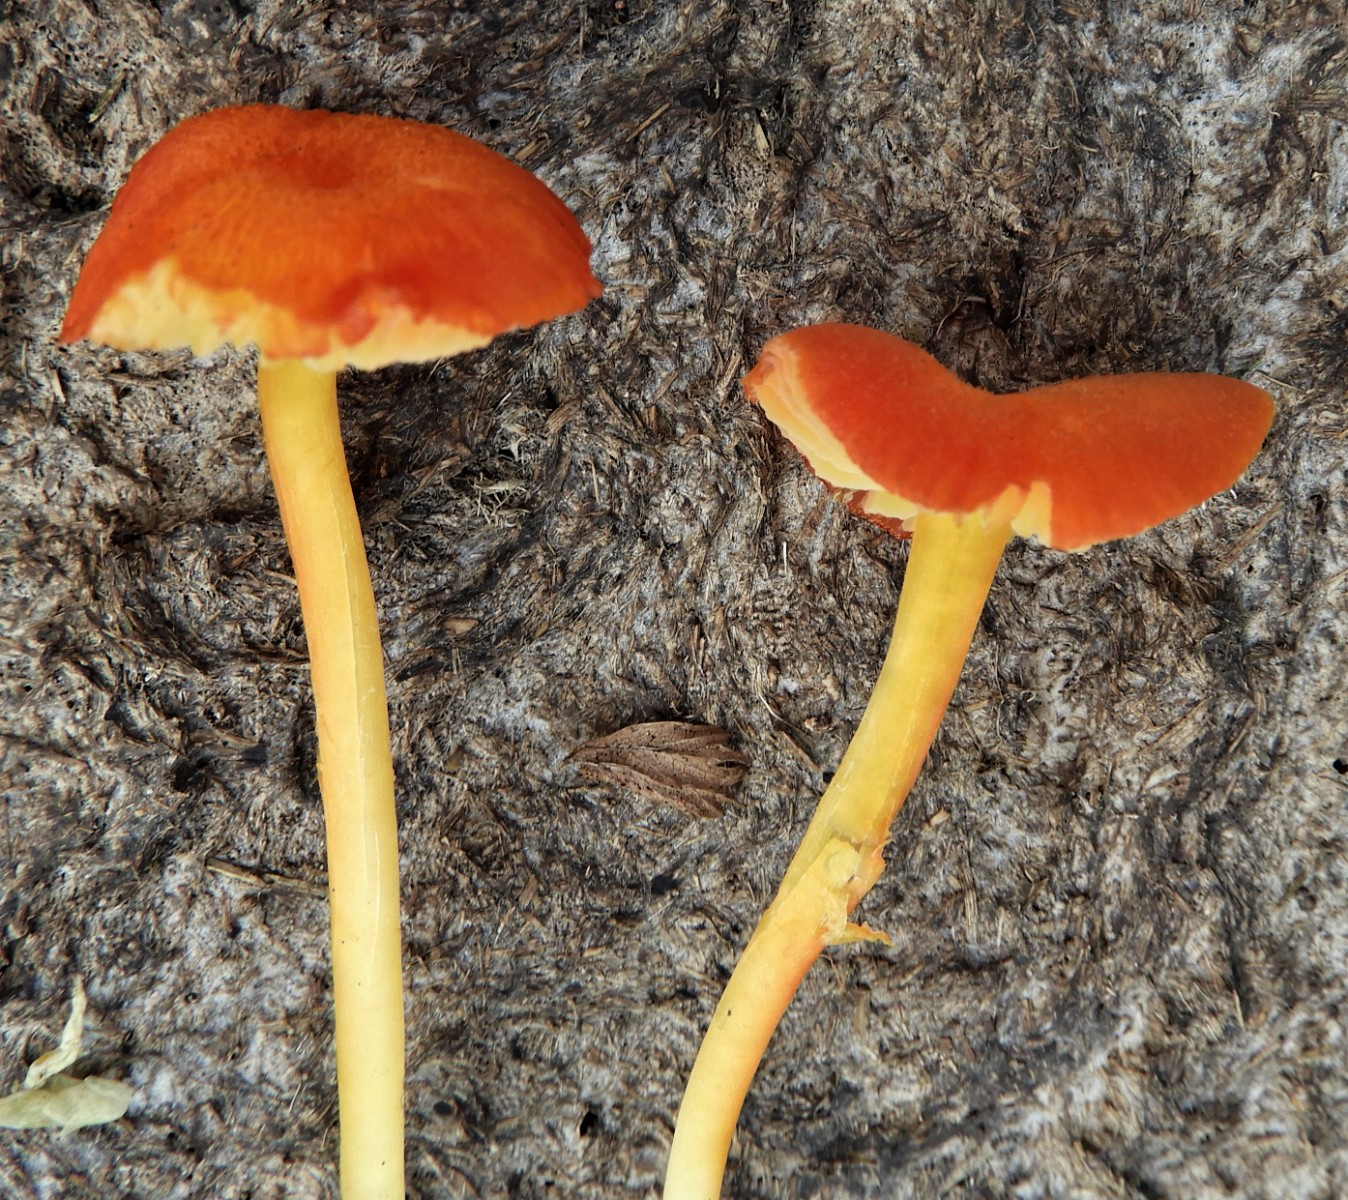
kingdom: Fungi
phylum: Basidiomycota
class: Agaricomycetes
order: Agaricales
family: Hygrophoraceae
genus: Hygrocybe
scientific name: Hygrocybe helobia
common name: hvidløgs-vokshat
